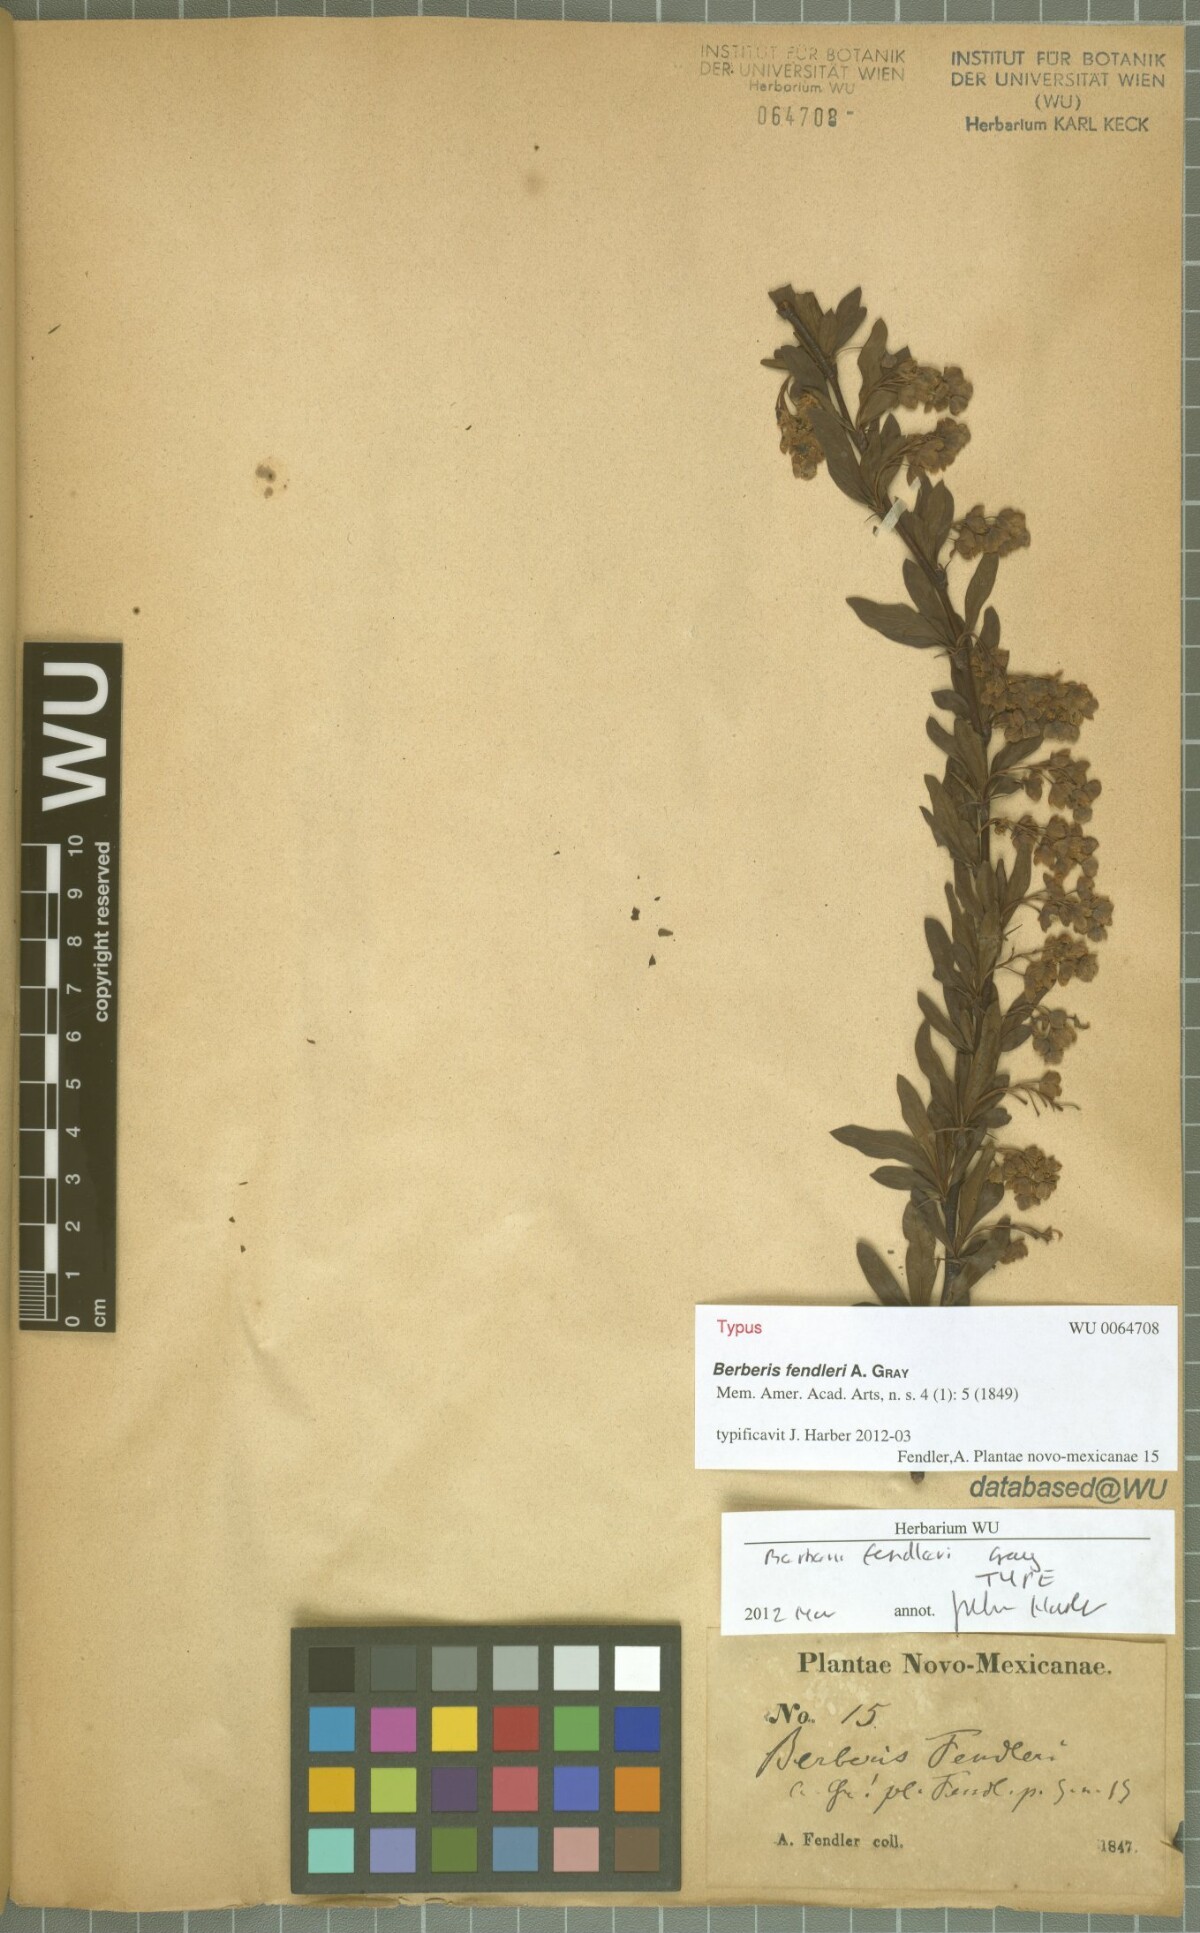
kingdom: Plantae
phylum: Tracheophyta
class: Magnoliopsida
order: Ranunculales
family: Berberidaceae
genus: Berberis
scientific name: Berberis fendleri
